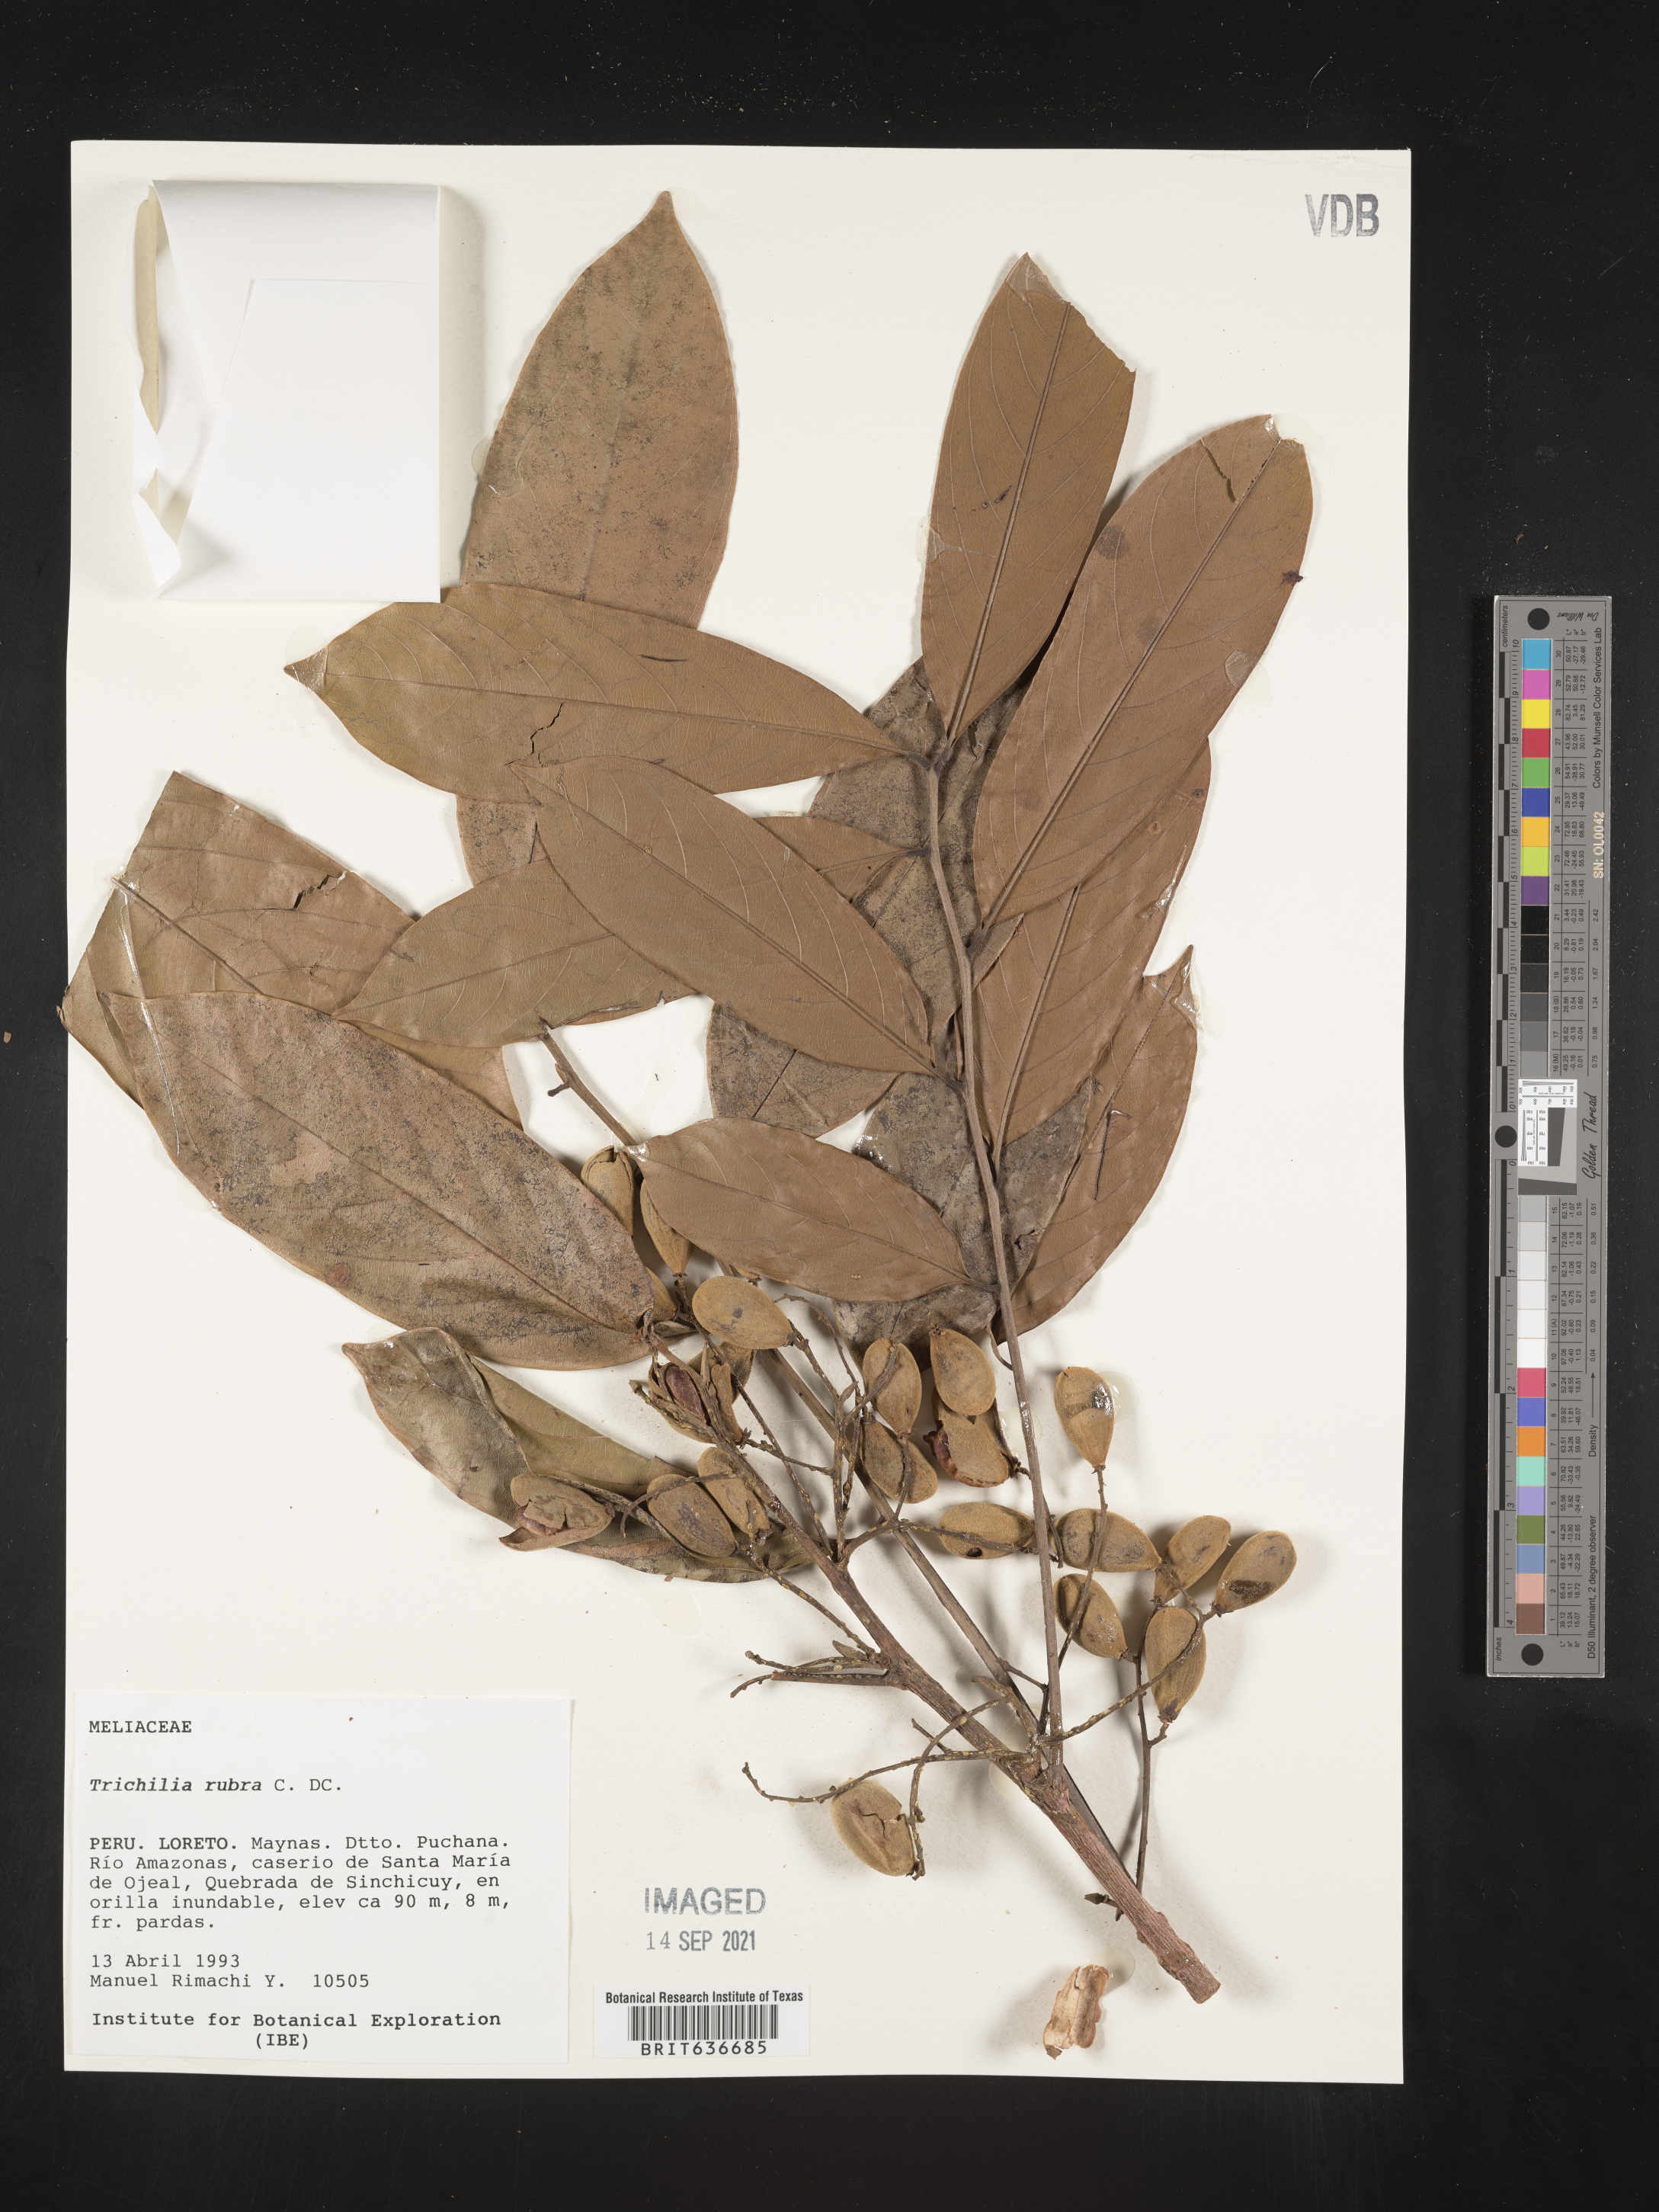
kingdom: Plantae
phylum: Tracheophyta
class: Magnoliopsida
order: Sapindales
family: Meliaceae
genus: Trichilia
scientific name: Trichilia
